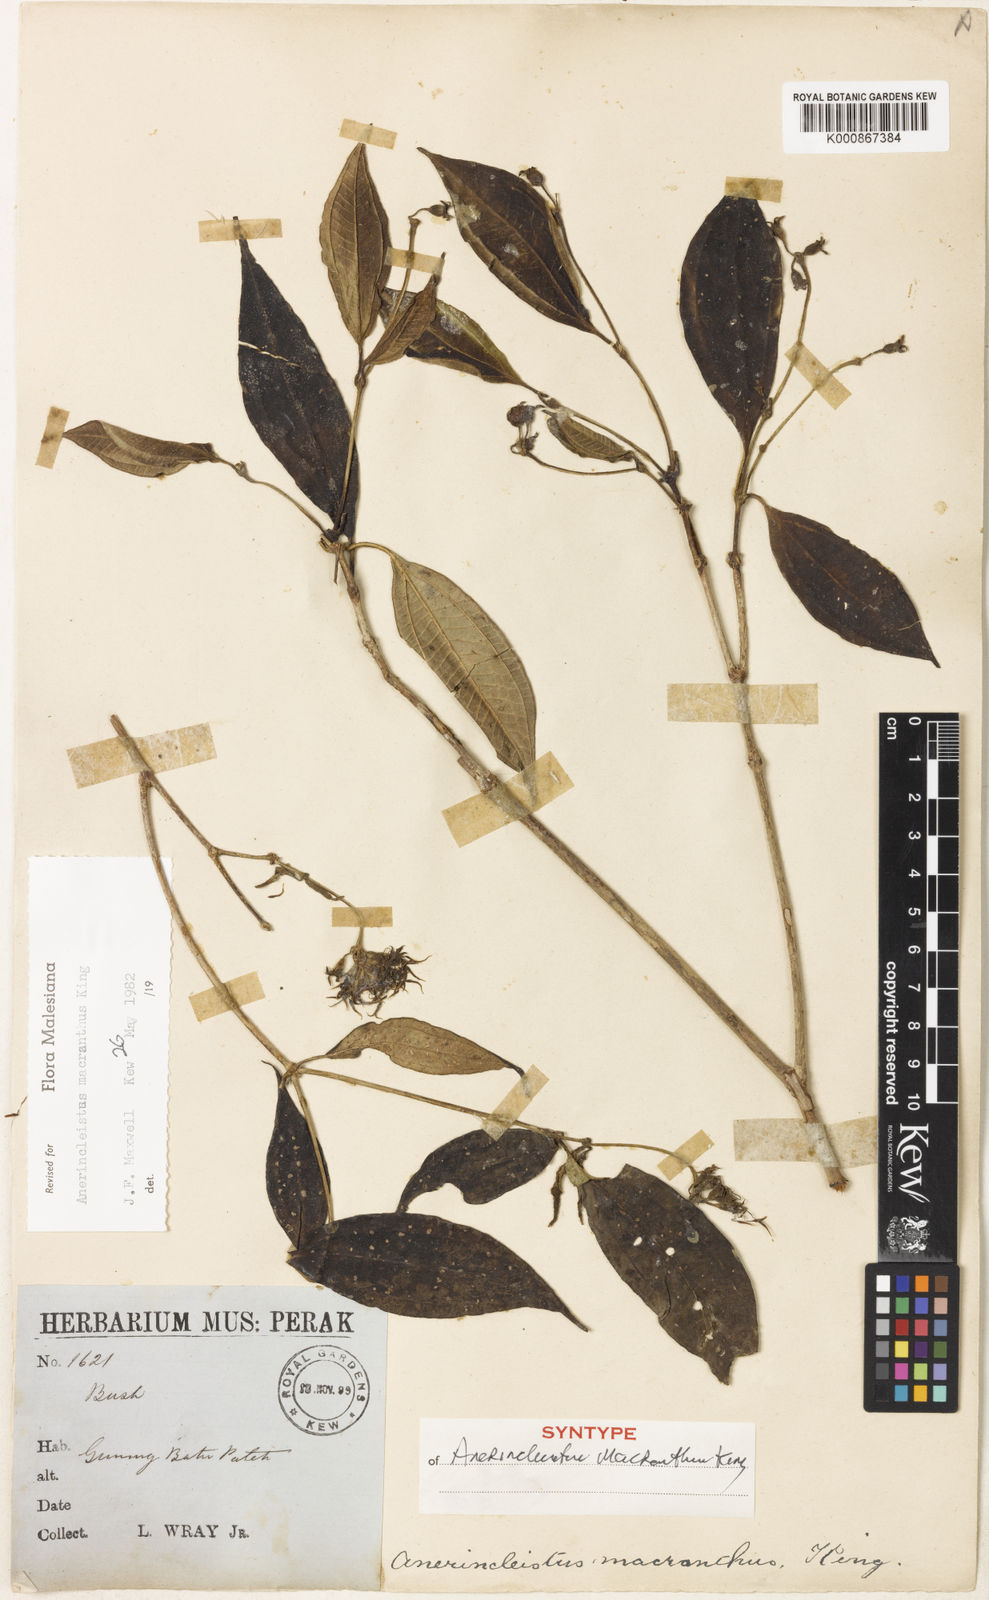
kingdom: Plantae
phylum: Tracheophyta
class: Magnoliopsida
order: Myrtales
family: Melastomataceae
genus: Anerincleistus
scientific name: Anerincleistus macranthus
